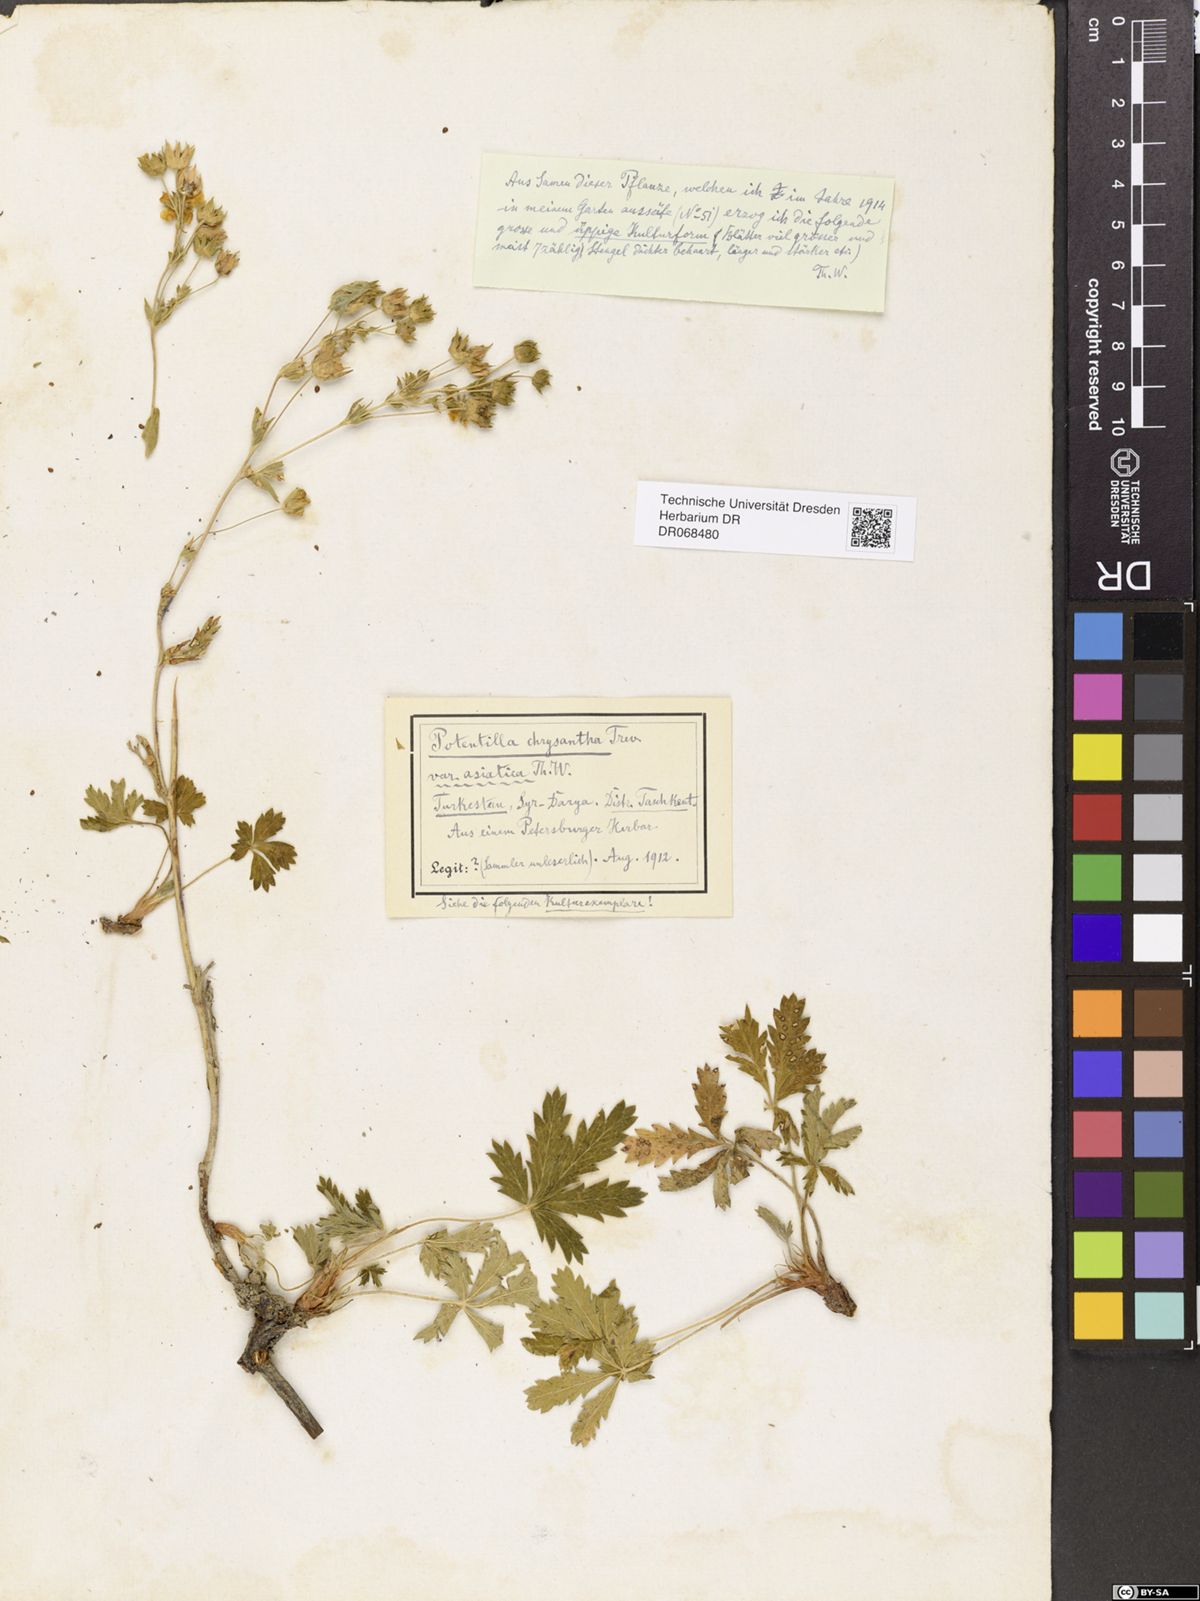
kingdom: Plantae
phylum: Tracheophyta
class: Magnoliopsida
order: Rosales
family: Rosaceae
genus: Potentilla
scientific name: Potentilla asiatica
